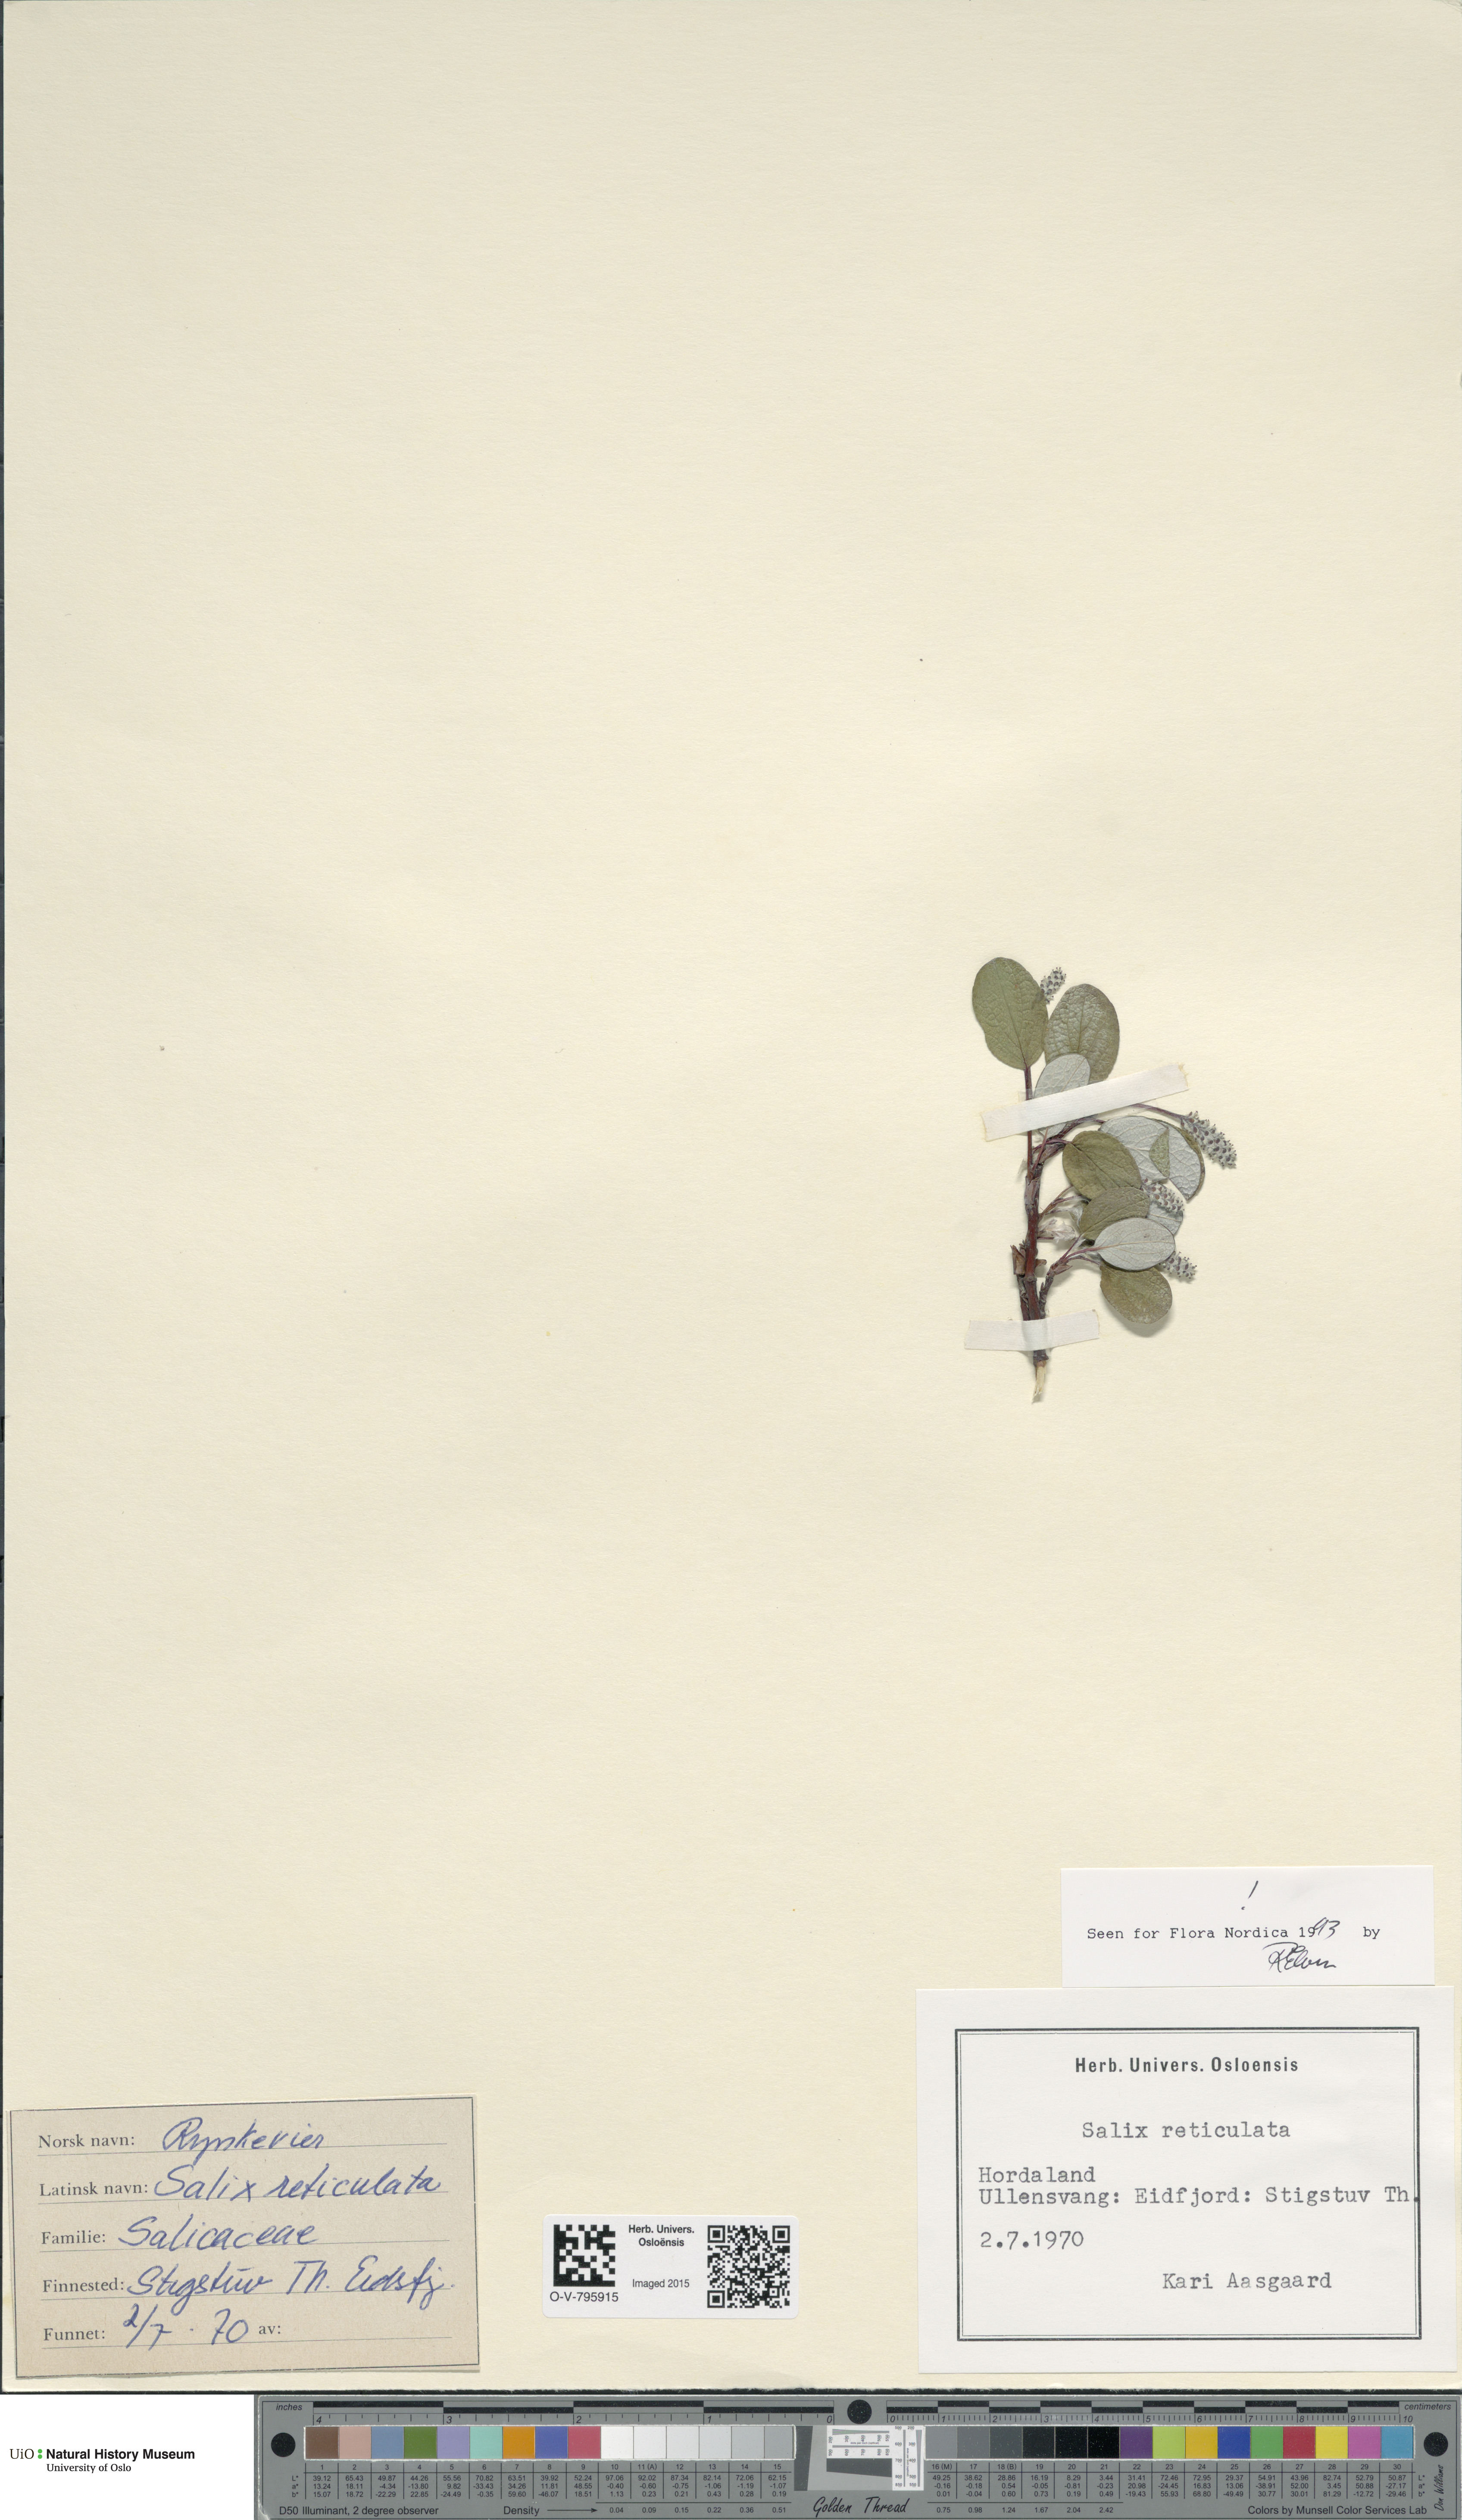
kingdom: Plantae
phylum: Tracheophyta
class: Magnoliopsida
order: Malpighiales
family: Salicaceae
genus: Salix
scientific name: Salix reticulata
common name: Net-leaved willow
